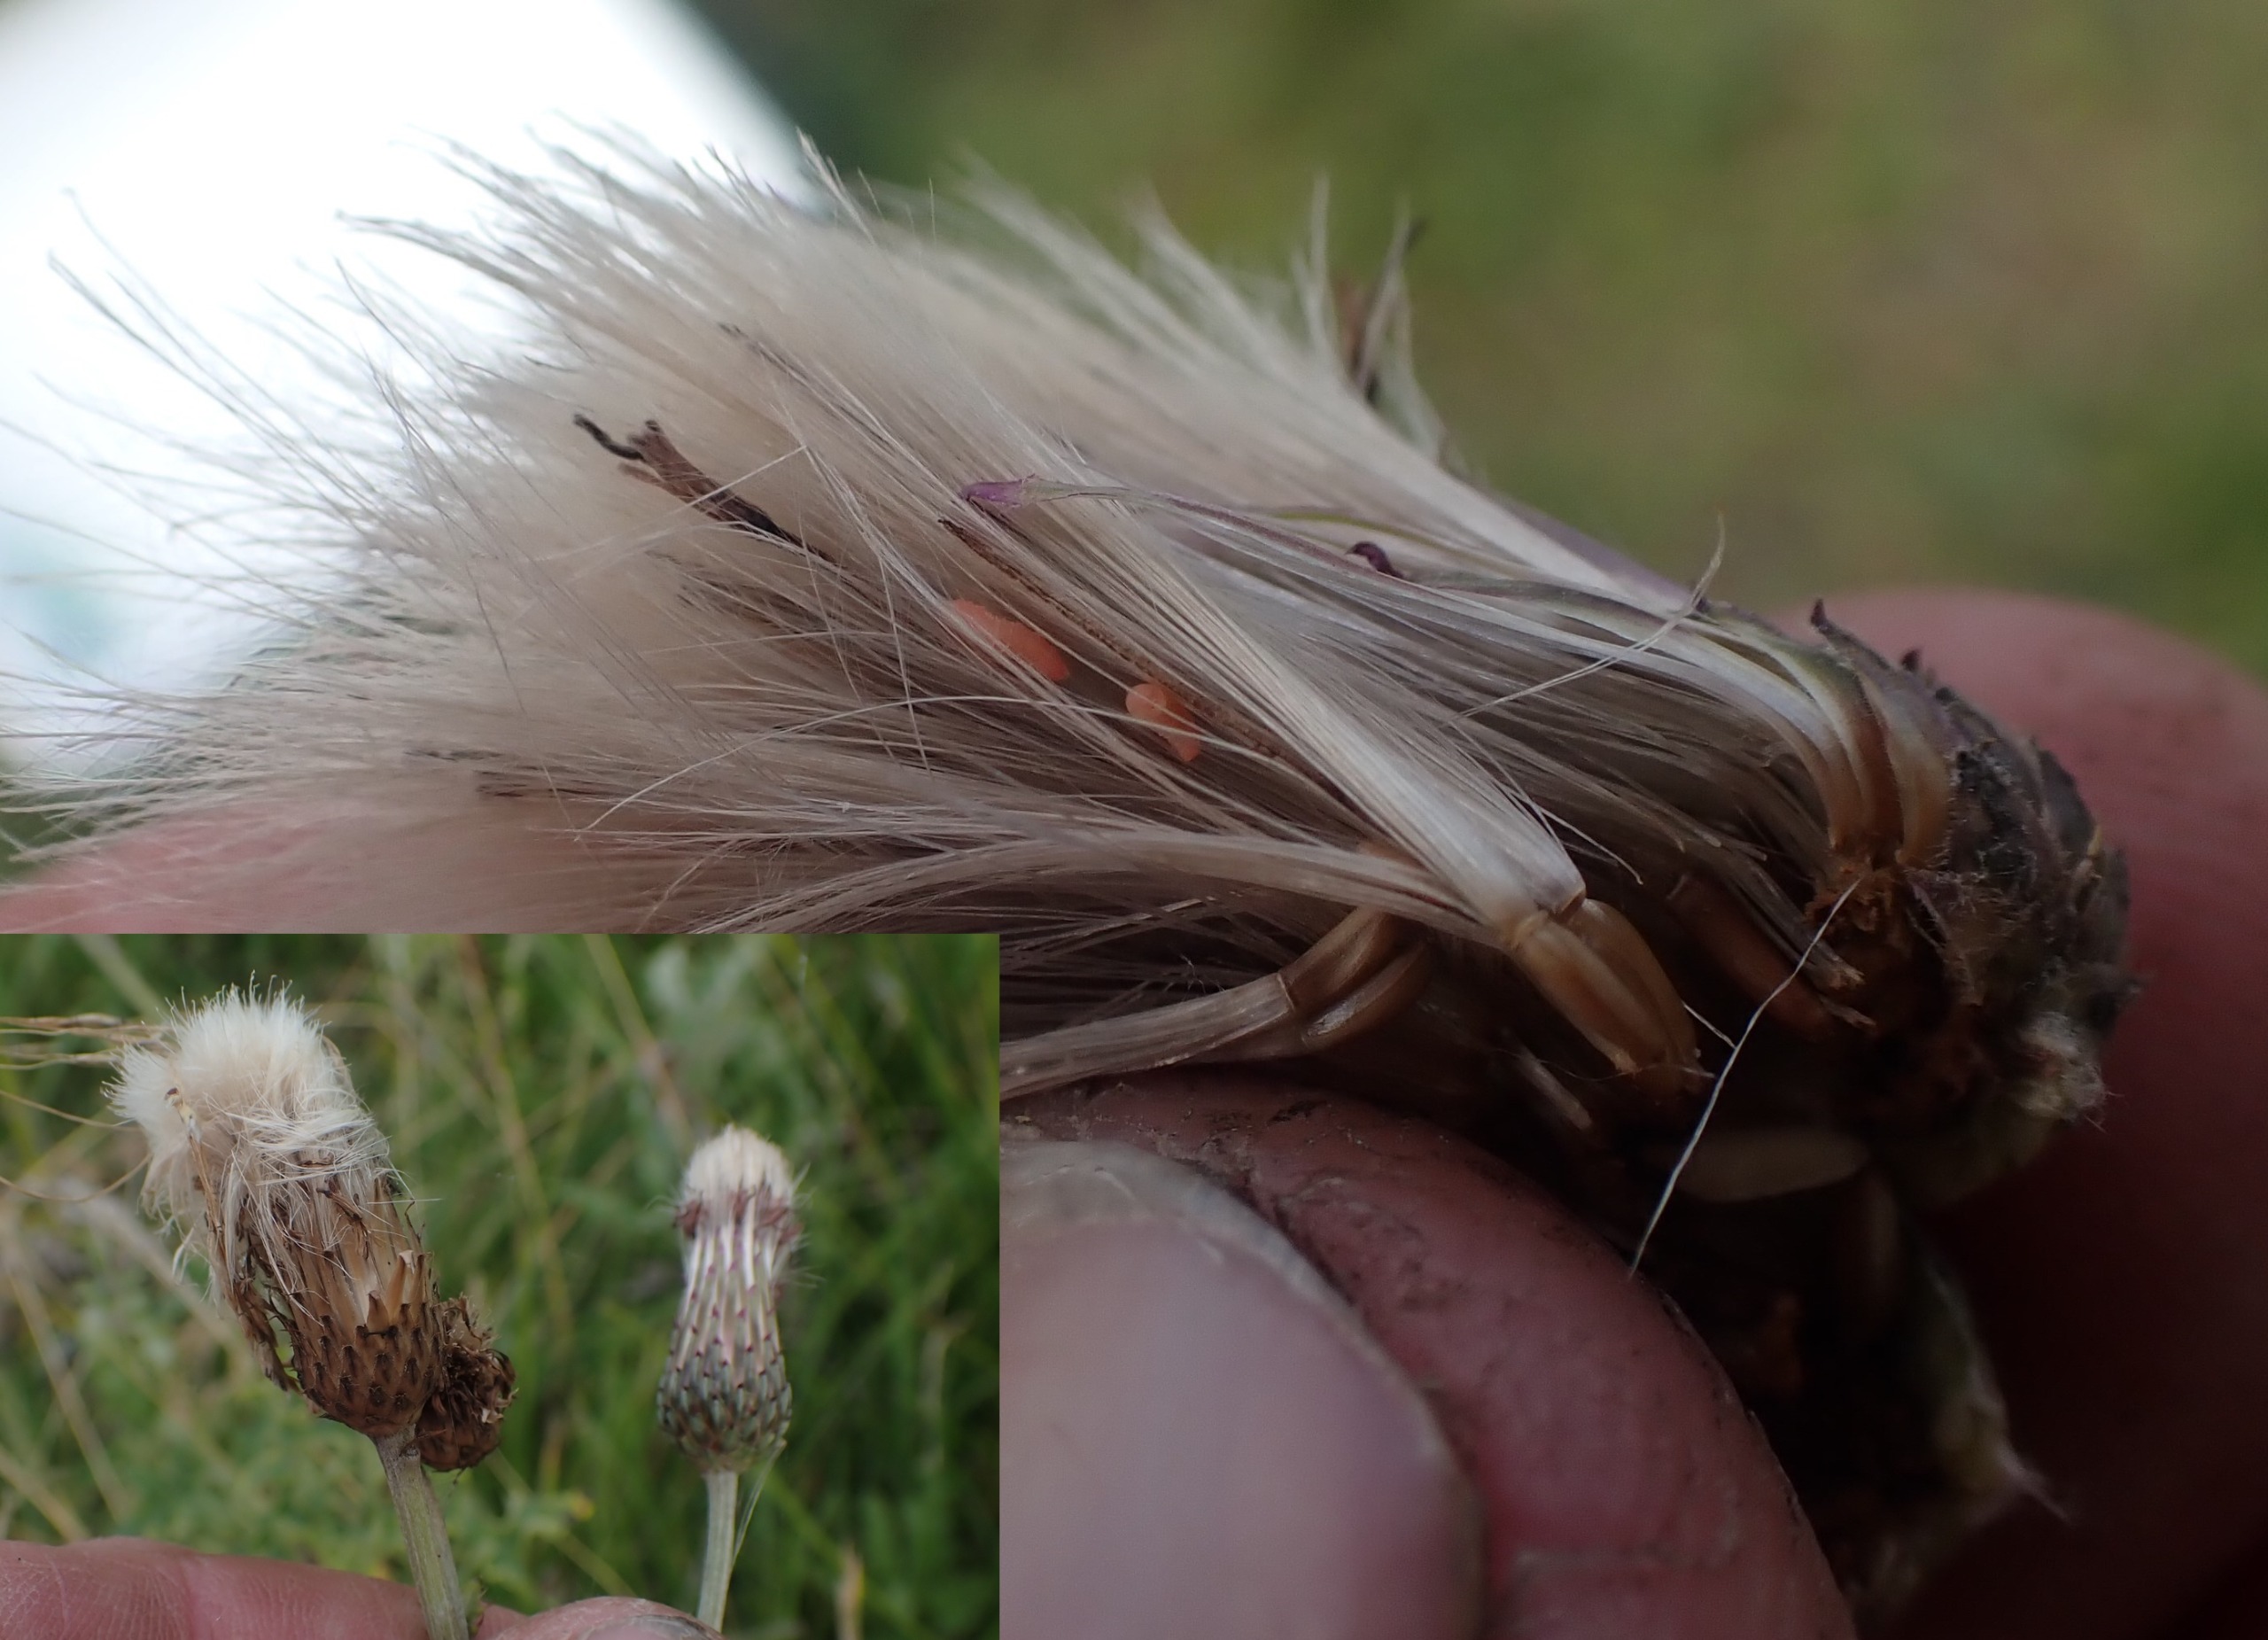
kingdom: Animalia
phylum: Arthropoda
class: Insecta
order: Diptera
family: Cecidomyiidae
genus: Jaapiella
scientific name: Jaapiella cirsiicola
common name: Tidselgalmyg
